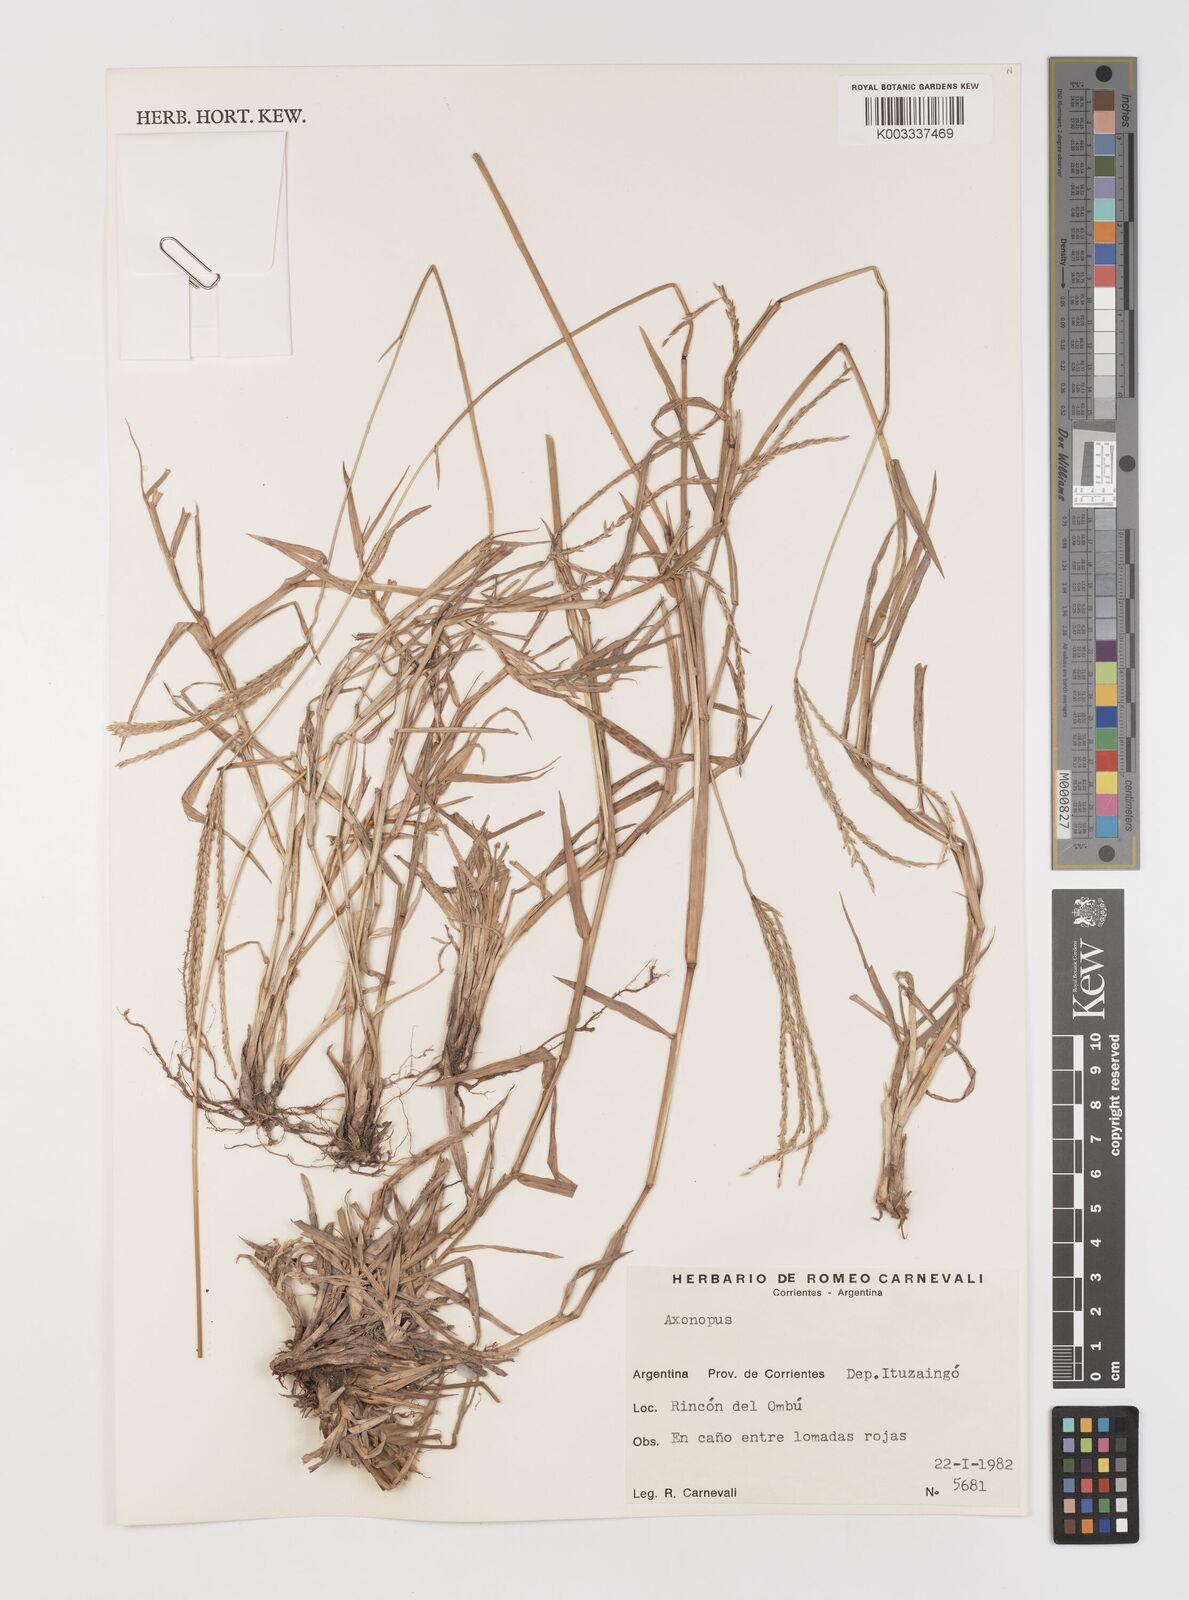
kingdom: Plantae
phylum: Tracheophyta
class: Liliopsida
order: Poales
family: Poaceae
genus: Axonopus
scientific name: Axonopus
